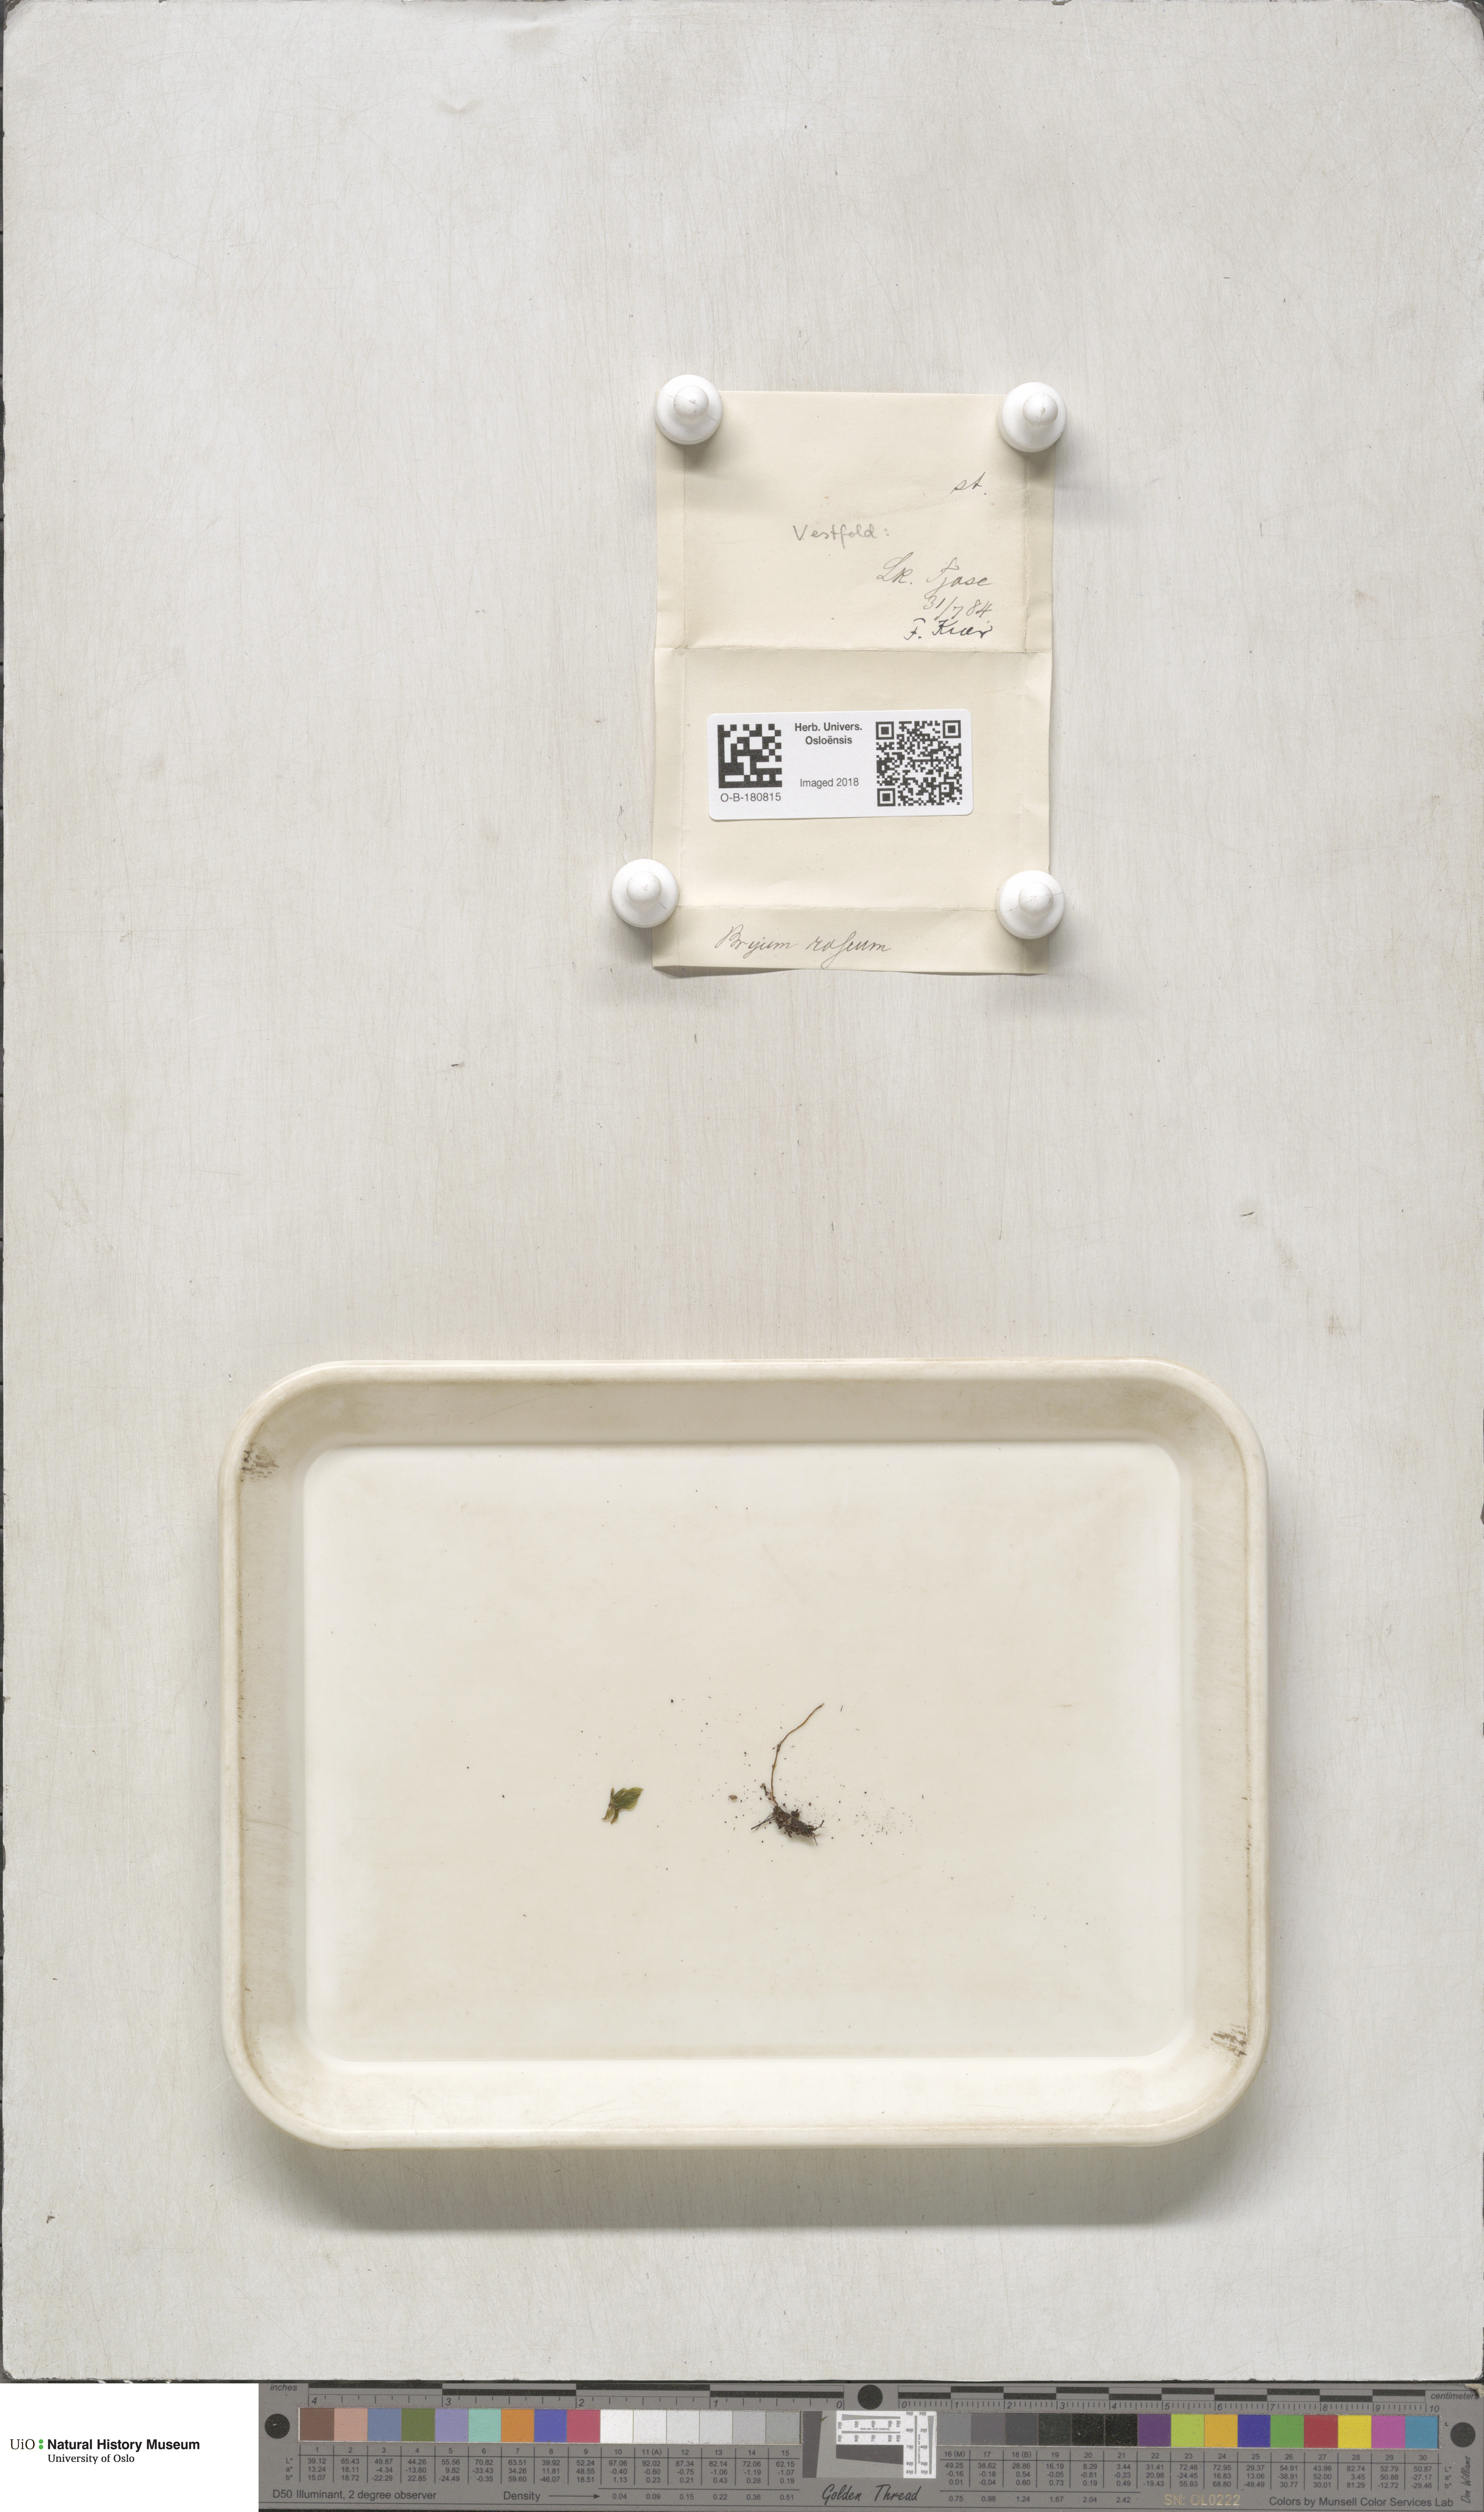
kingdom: Plantae
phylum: Bryophyta
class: Bryopsida
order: Bryales
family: Bryaceae
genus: Rhodobryum
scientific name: Rhodobryum roseum
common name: Rose-moss
